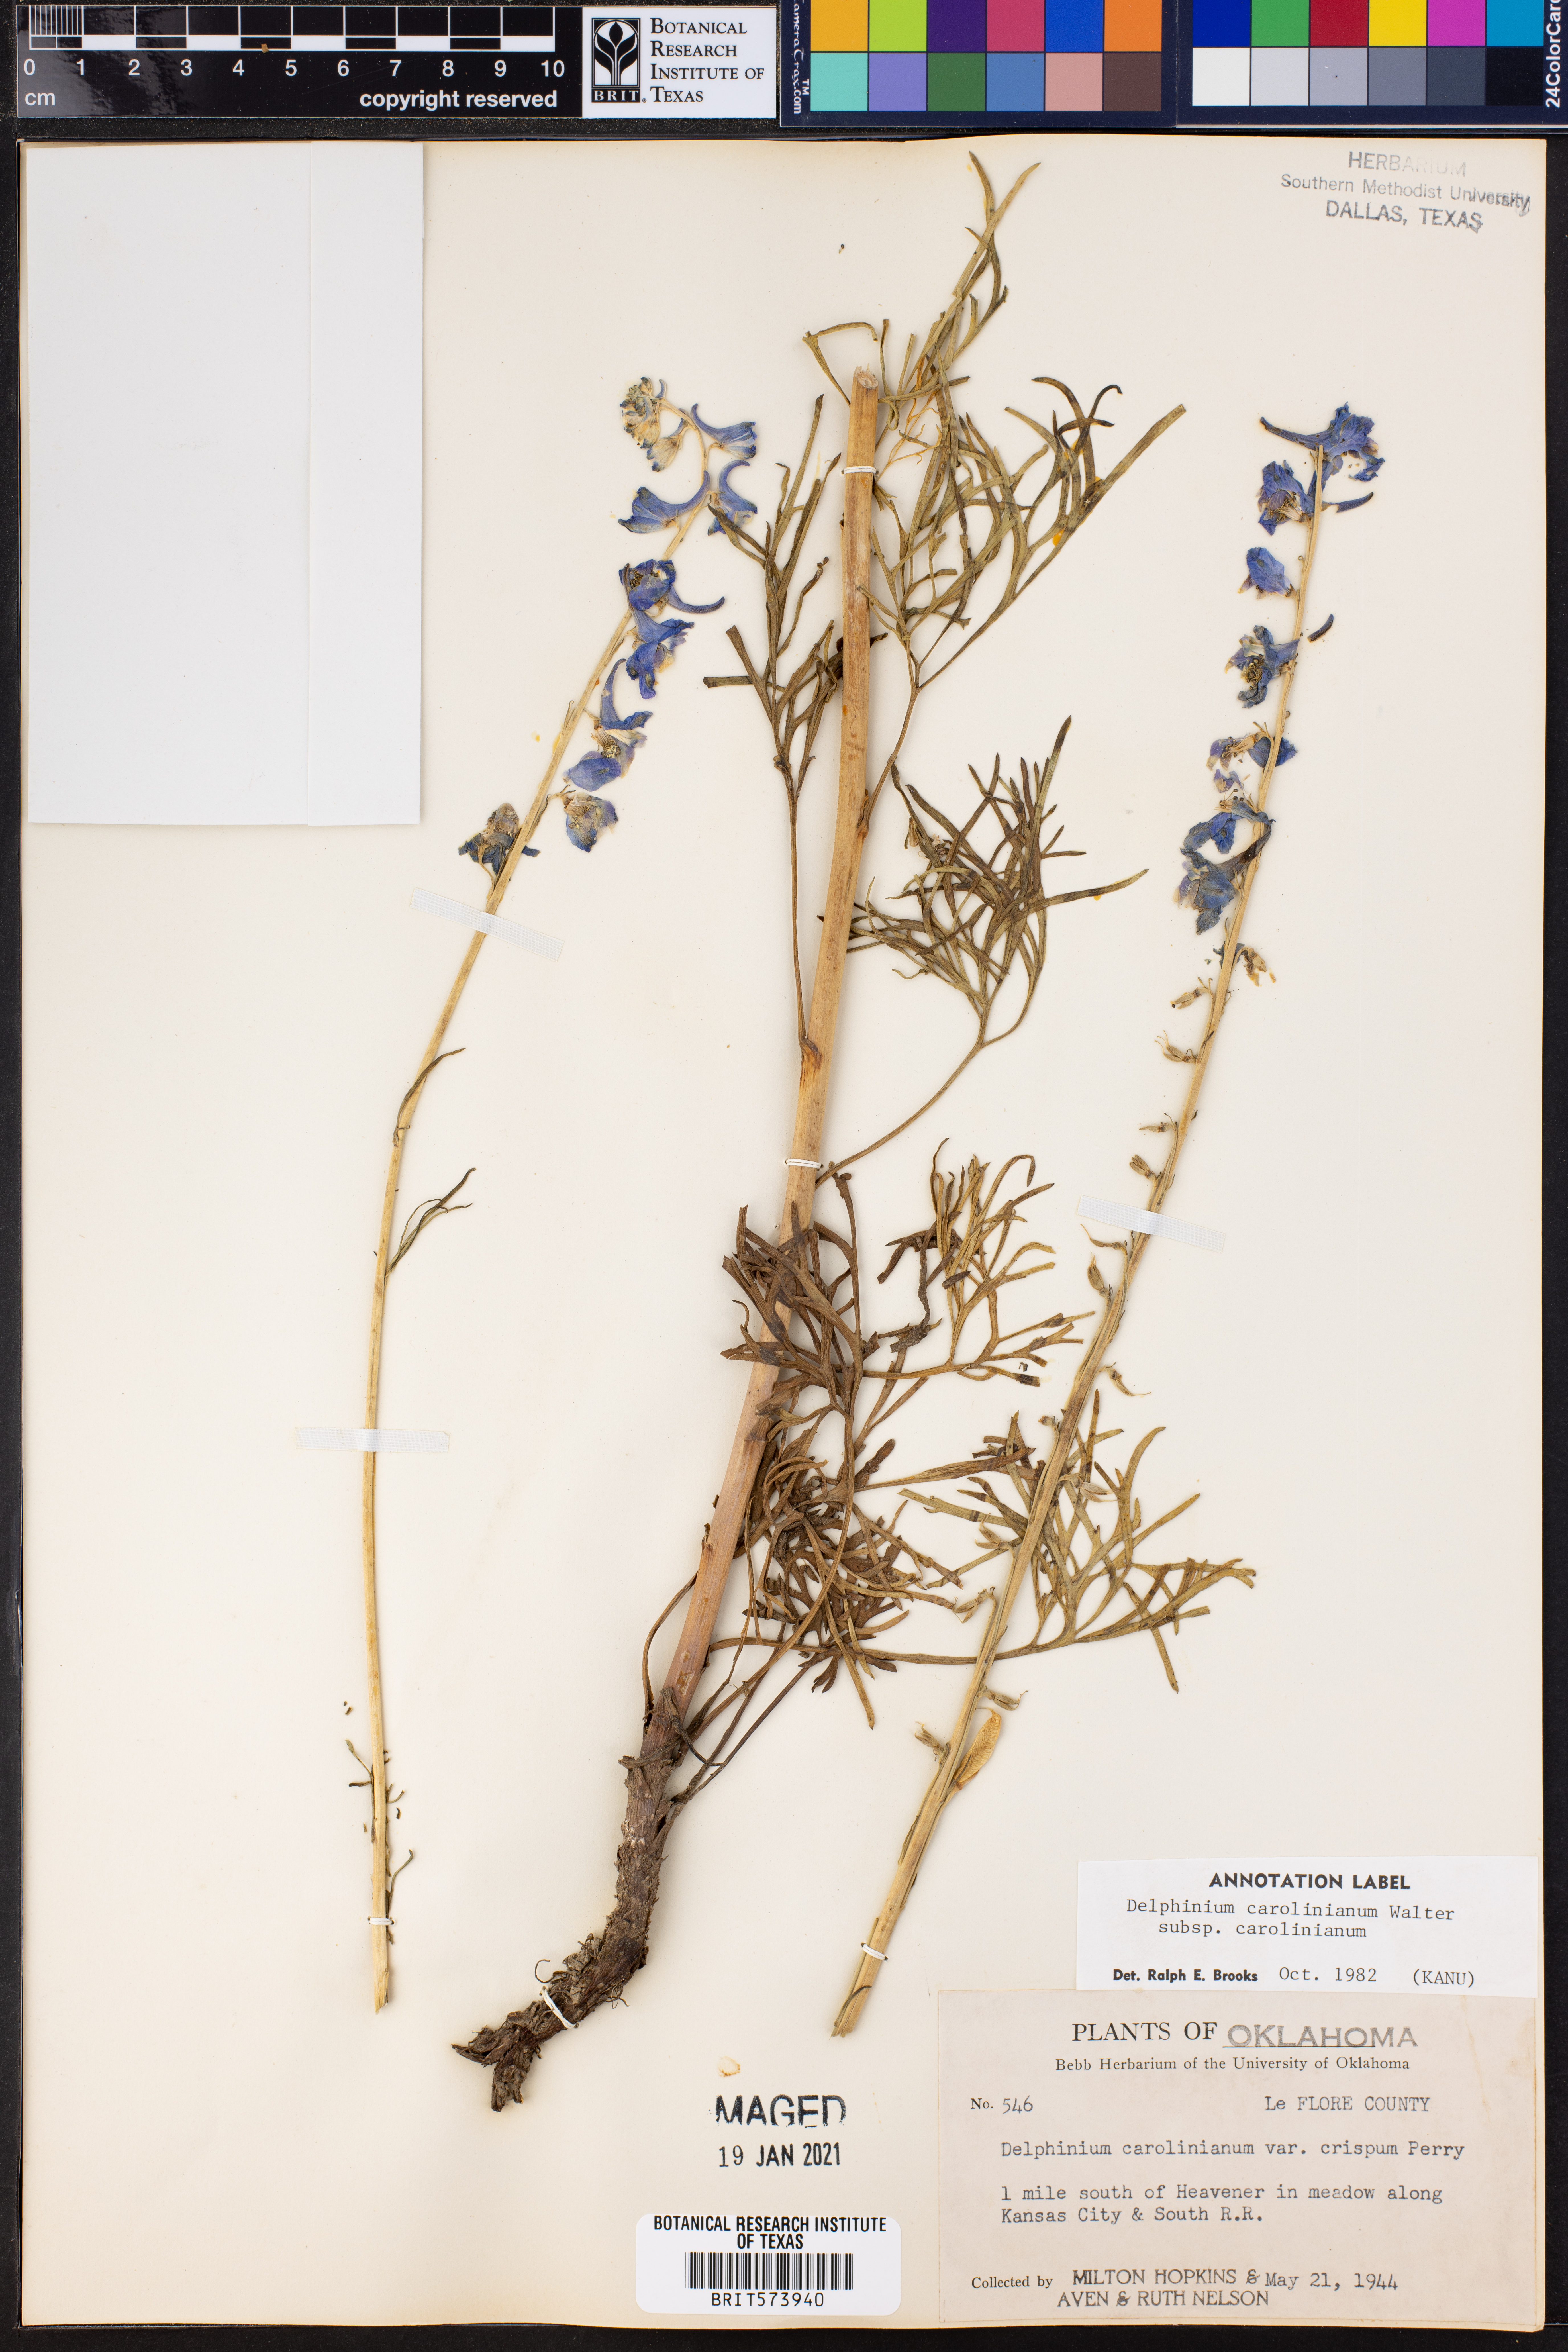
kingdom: Plantae
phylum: Tracheophyta
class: Magnoliopsida
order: Ranunculales
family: Ranunculaceae
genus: Delphinium
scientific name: Delphinium carolinianum
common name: Carolina larkspur
